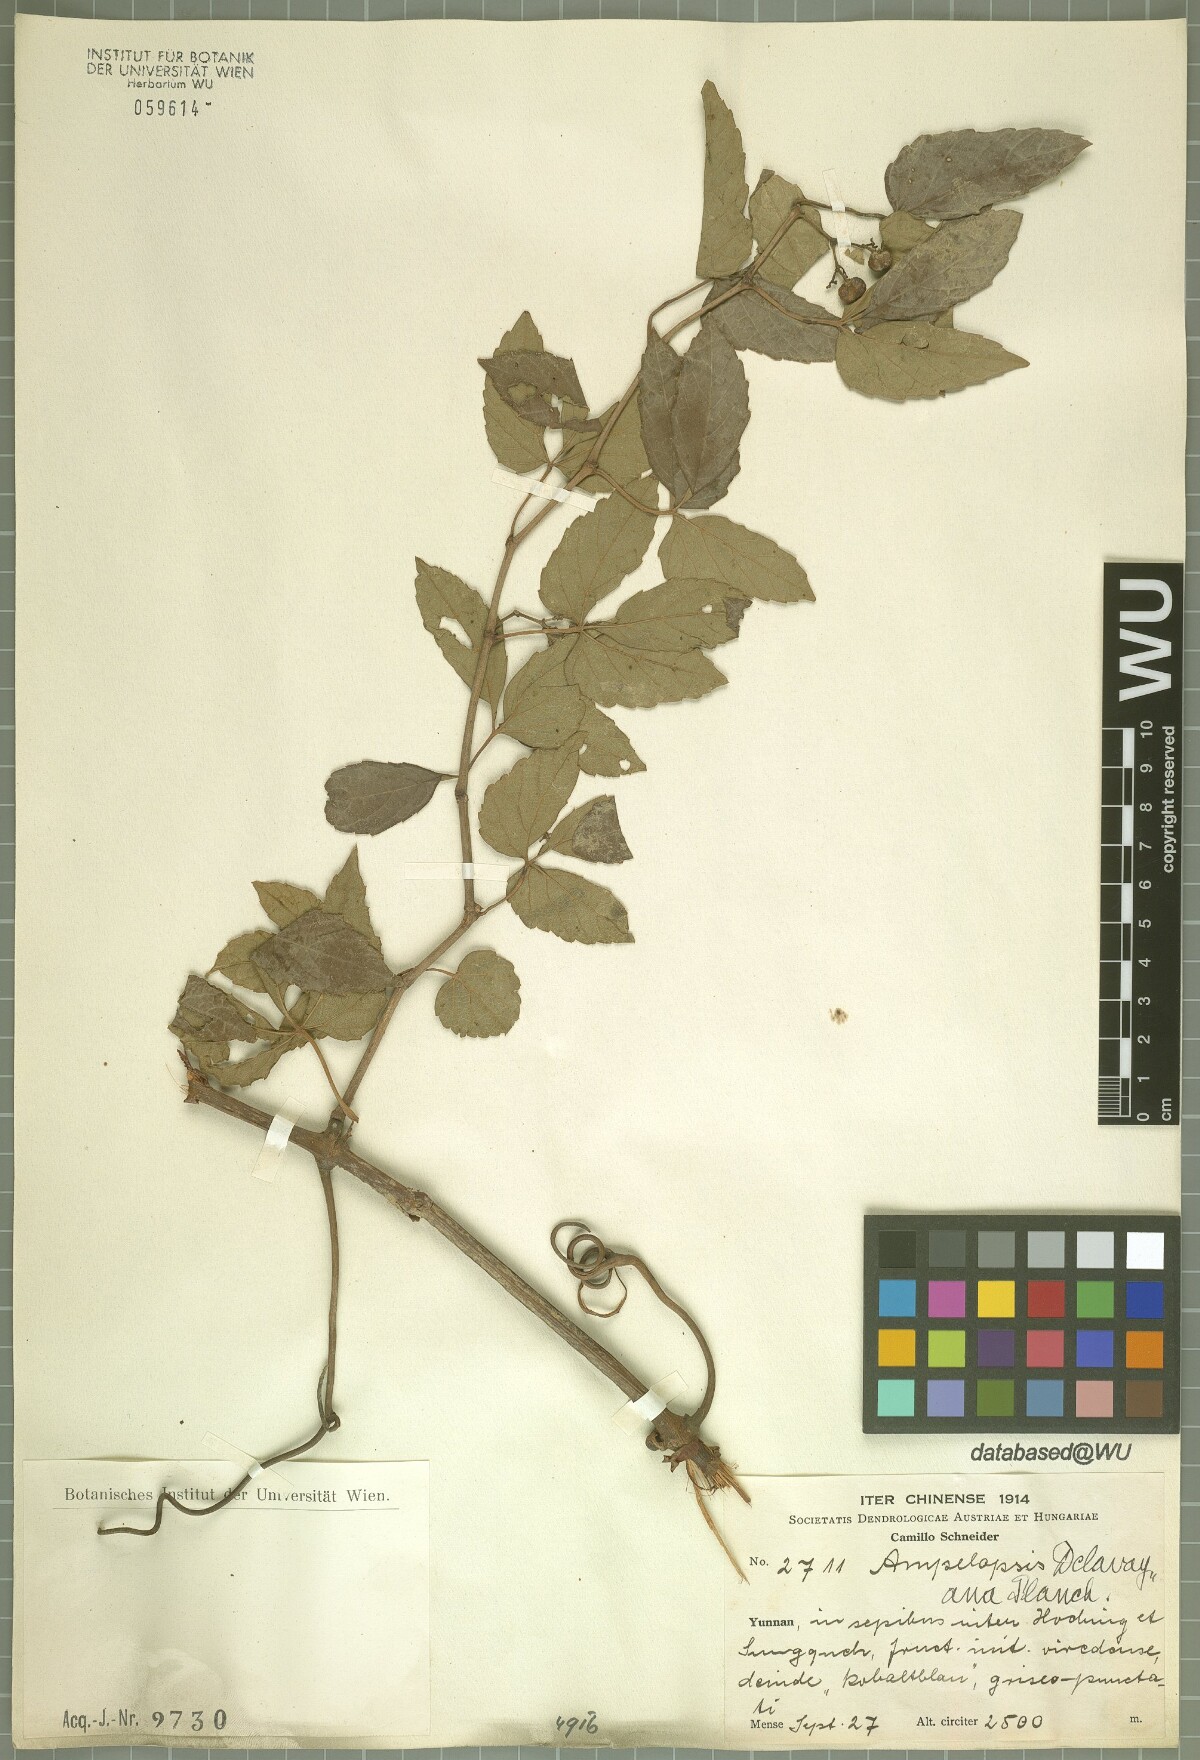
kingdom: Plantae
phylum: Tracheophyta
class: Magnoliopsida
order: Vitales
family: Vitaceae
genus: Ampelopsis
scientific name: Ampelopsis delavayana
